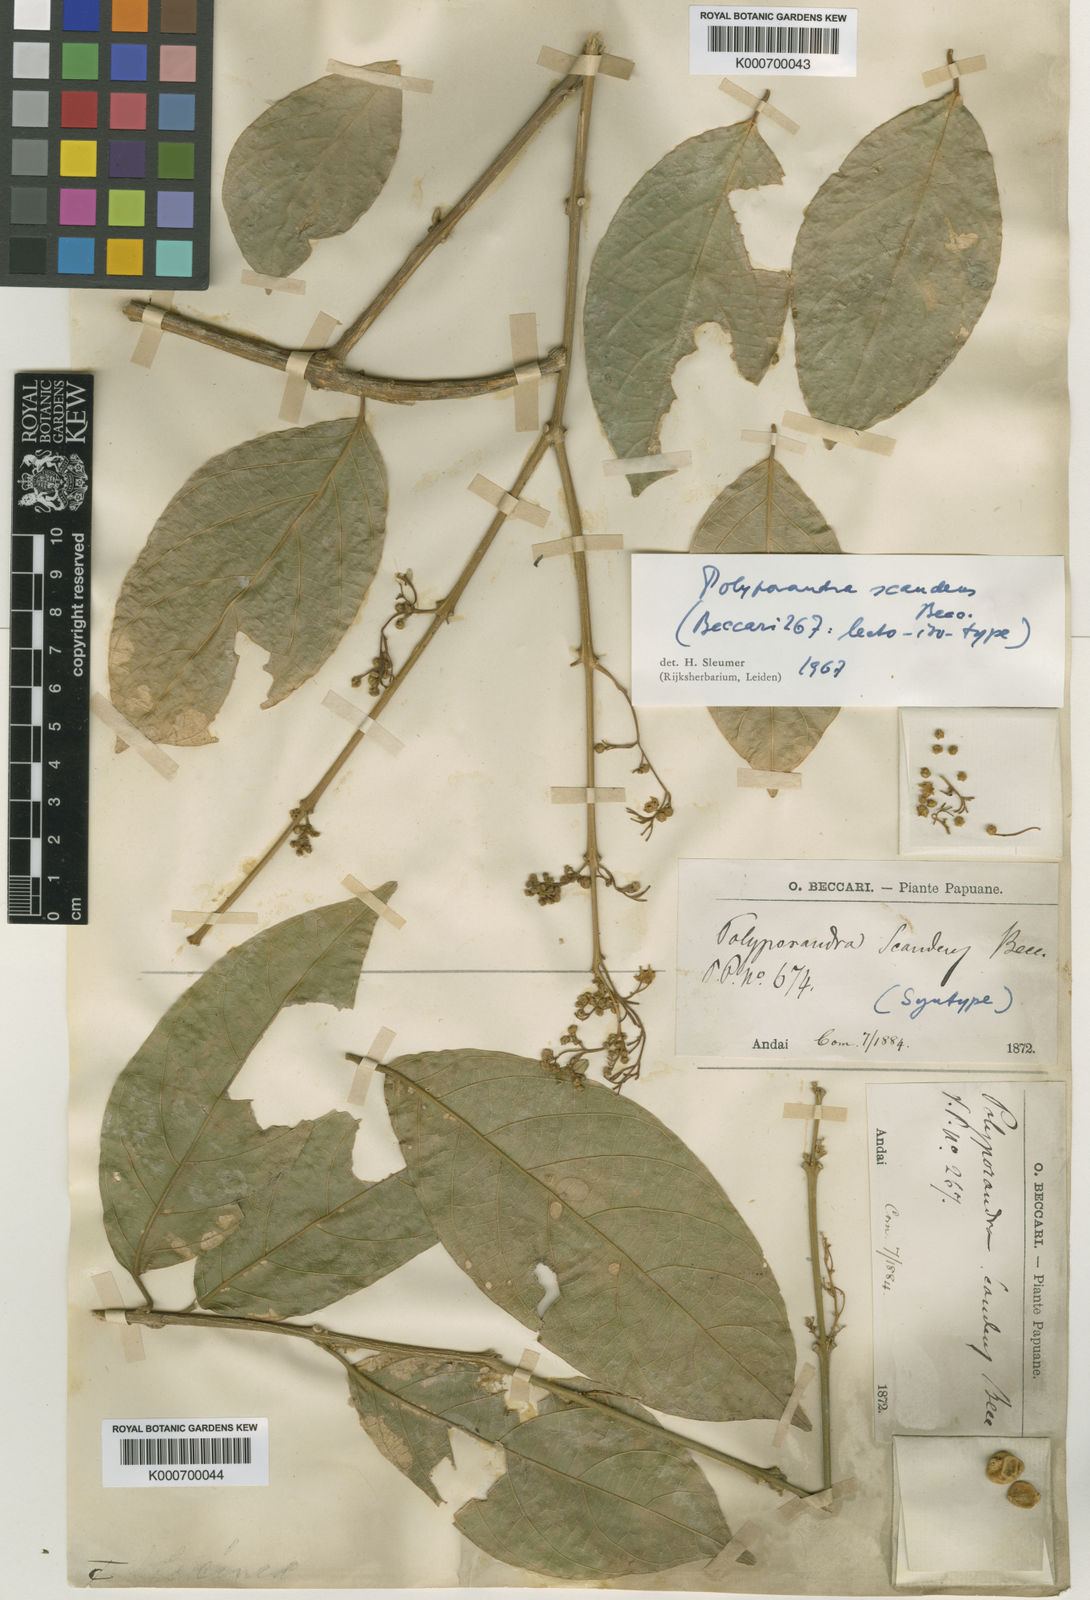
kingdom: Plantae
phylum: Tracheophyta
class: Magnoliopsida
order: Icacinales
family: Icacinaceae
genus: Iodes
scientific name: Iodes scandens
